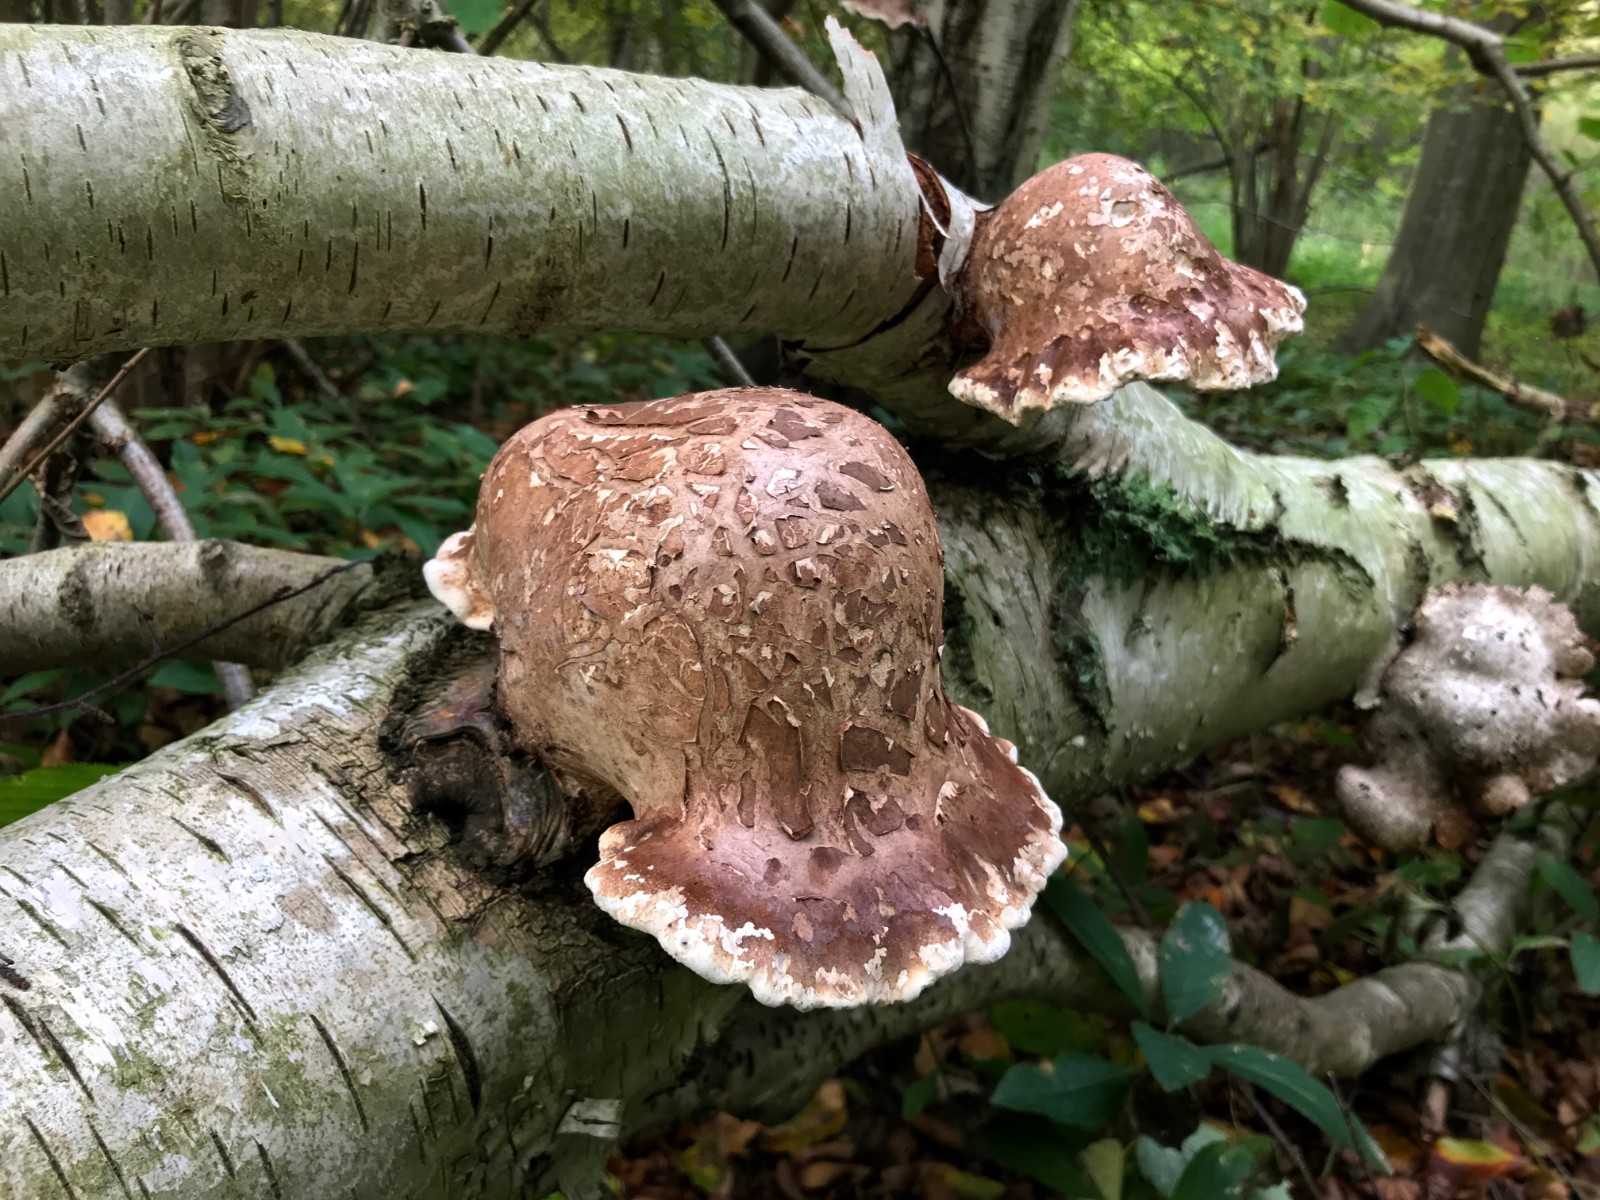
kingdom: Fungi
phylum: Basidiomycota
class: Agaricomycetes
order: Polyporales
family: Fomitopsidaceae
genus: Fomitopsis
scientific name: Fomitopsis betulina
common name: birkeporesvamp
